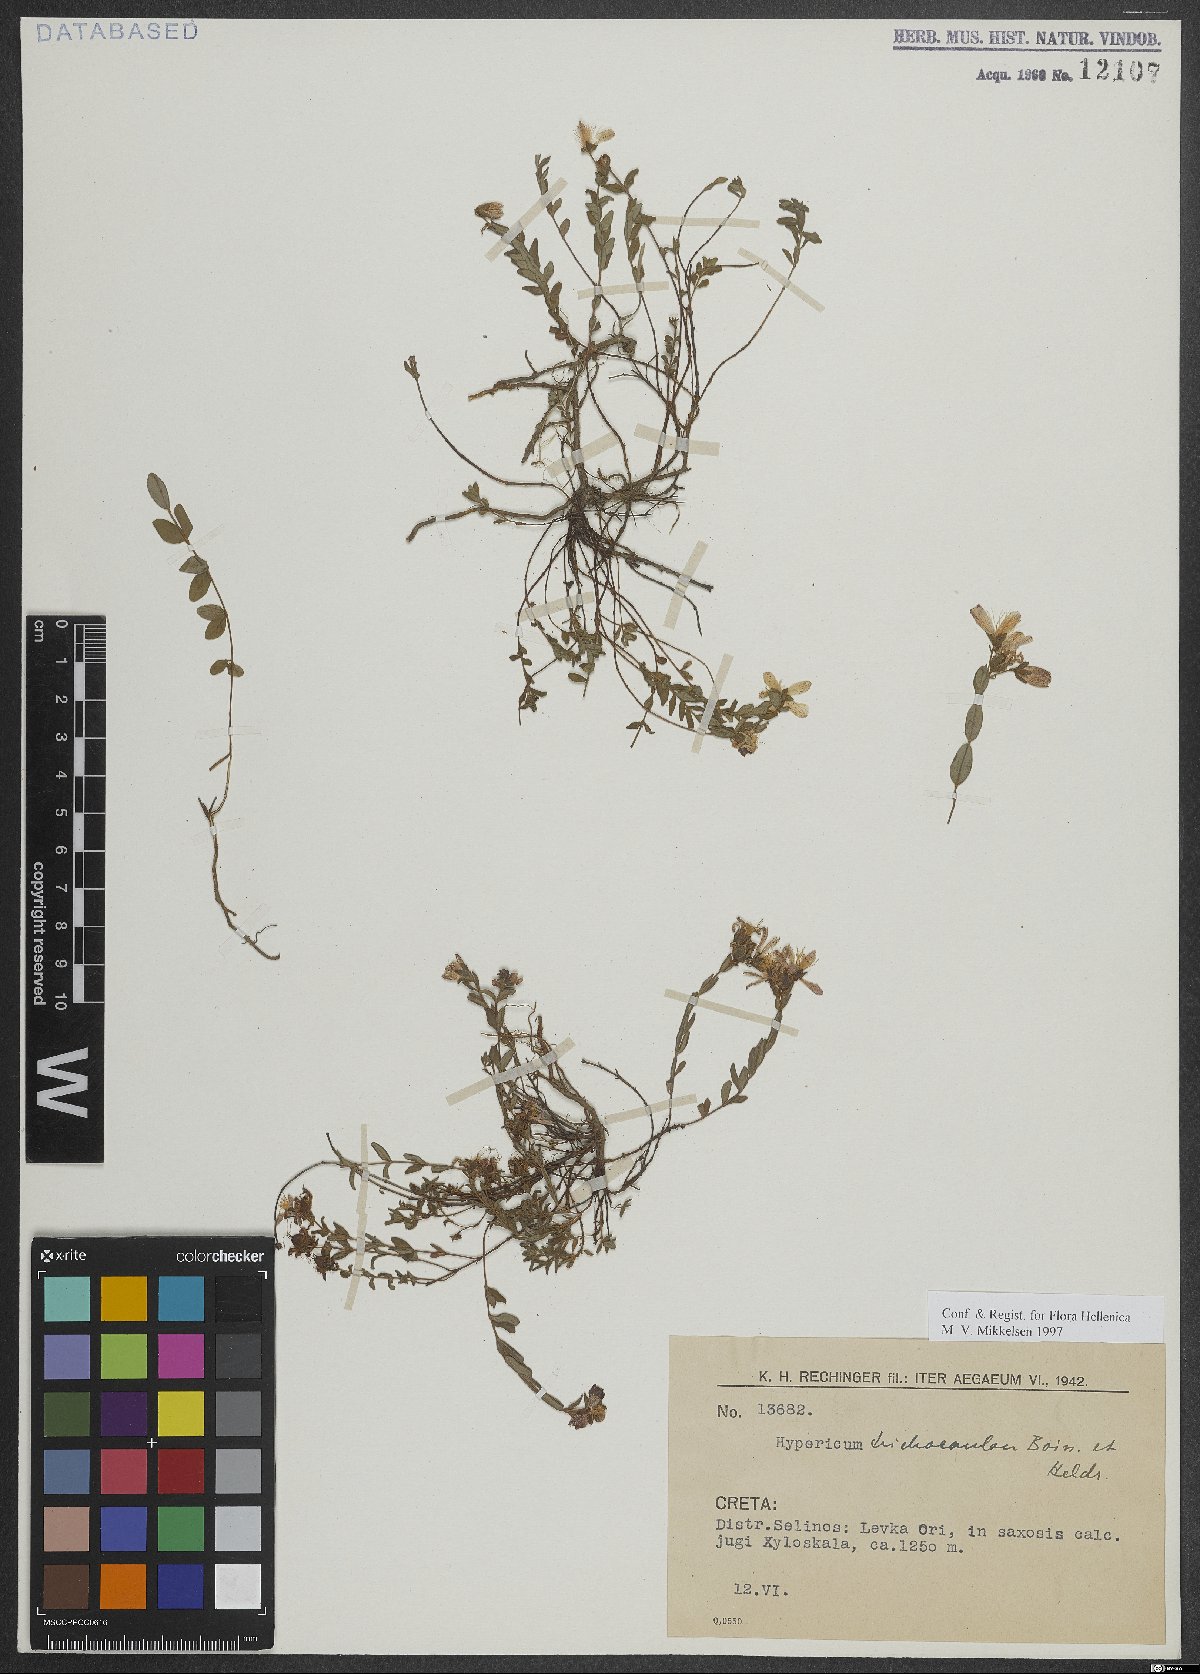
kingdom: Plantae
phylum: Tracheophyta
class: Magnoliopsida
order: Malpighiales
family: Hypericaceae
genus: Hypericum
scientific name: Hypericum trichocaulon
